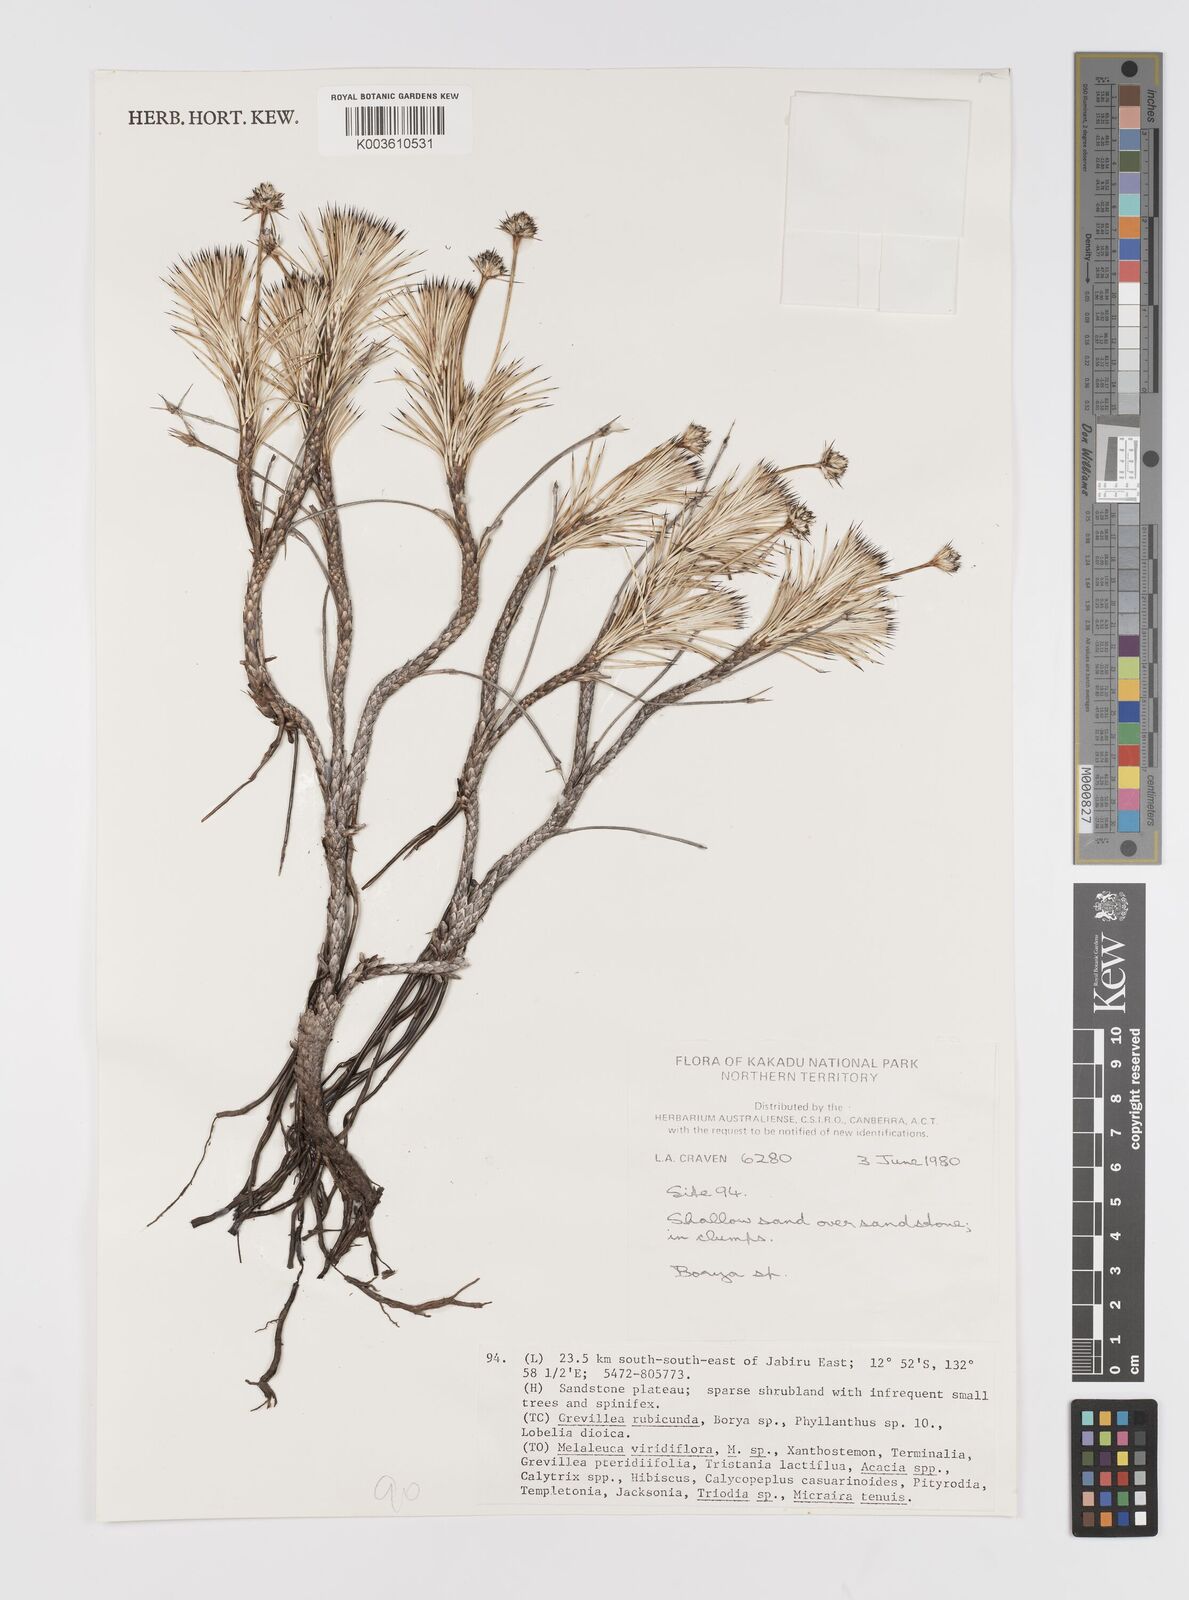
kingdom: Plantae
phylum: Tracheophyta
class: Liliopsida
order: Asparagales
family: Boryaceae
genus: Borya
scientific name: Borya septentrionalis
